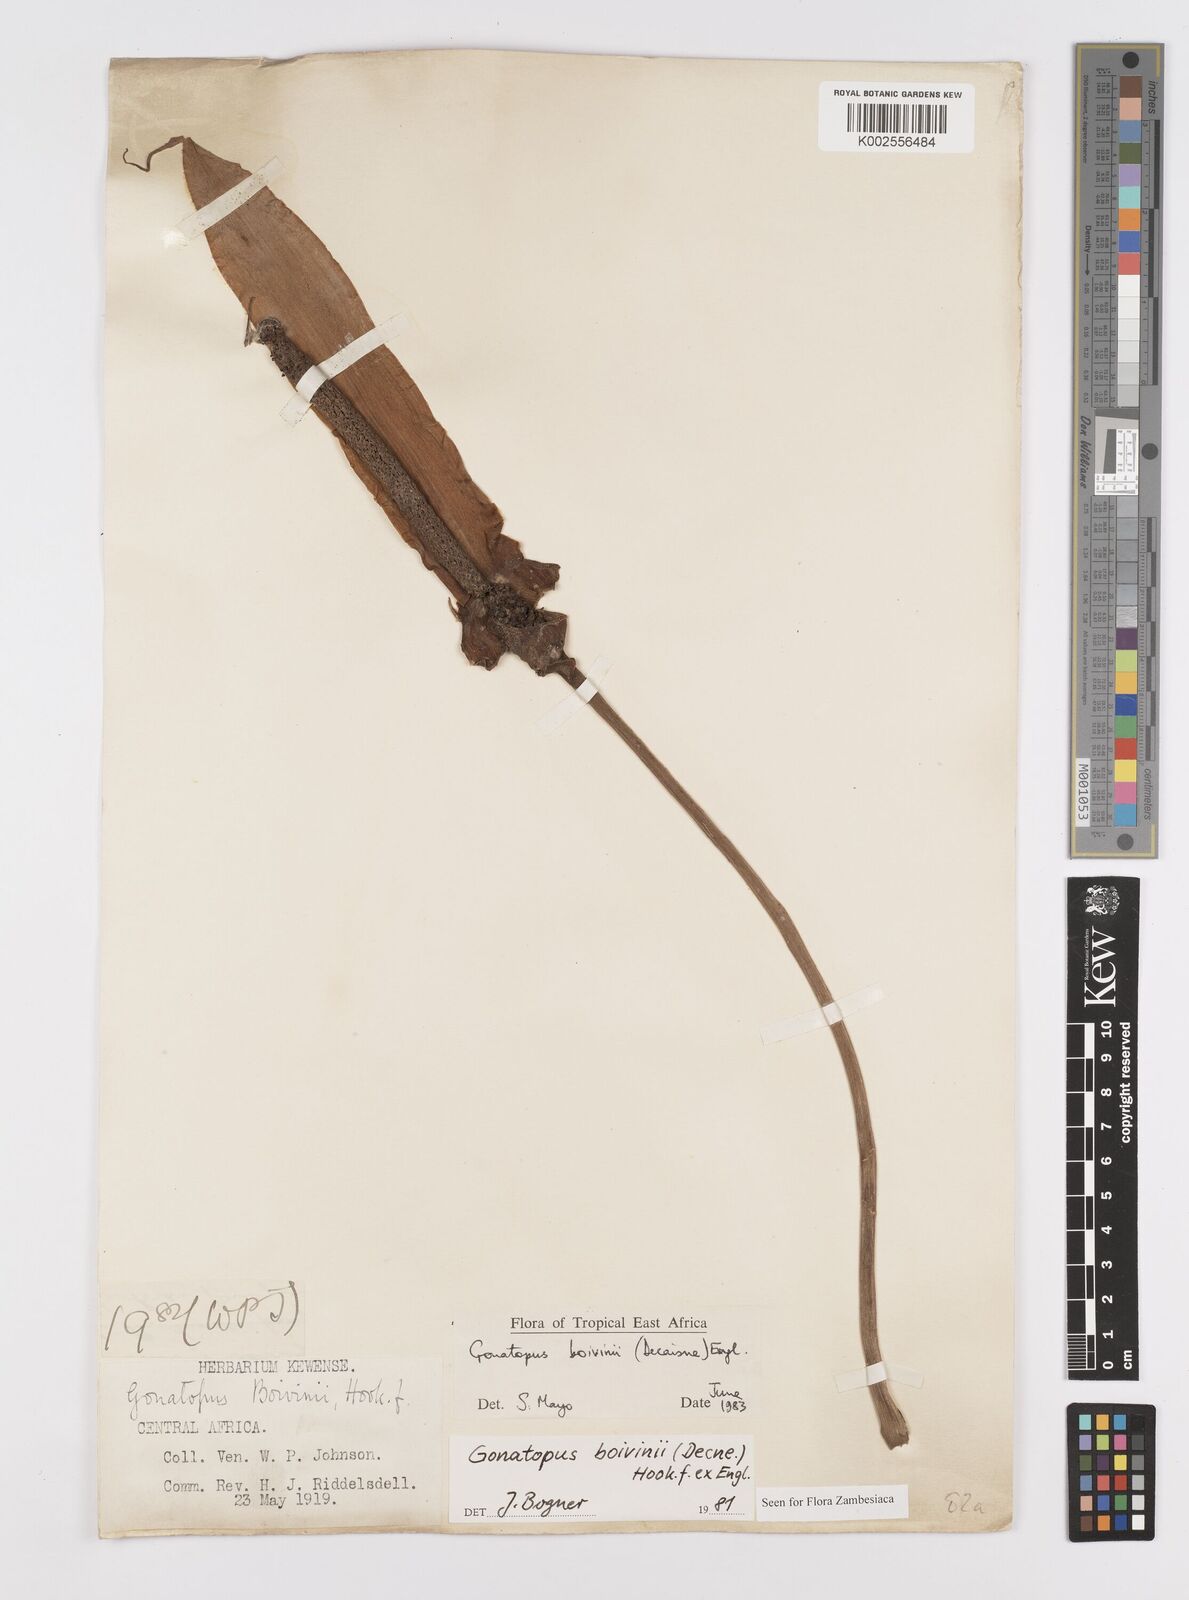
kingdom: Plantae
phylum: Tracheophyta
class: Liliopsida
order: Alismatales
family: Araceae
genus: Gonatopus
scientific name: Gonatopus boivinii
